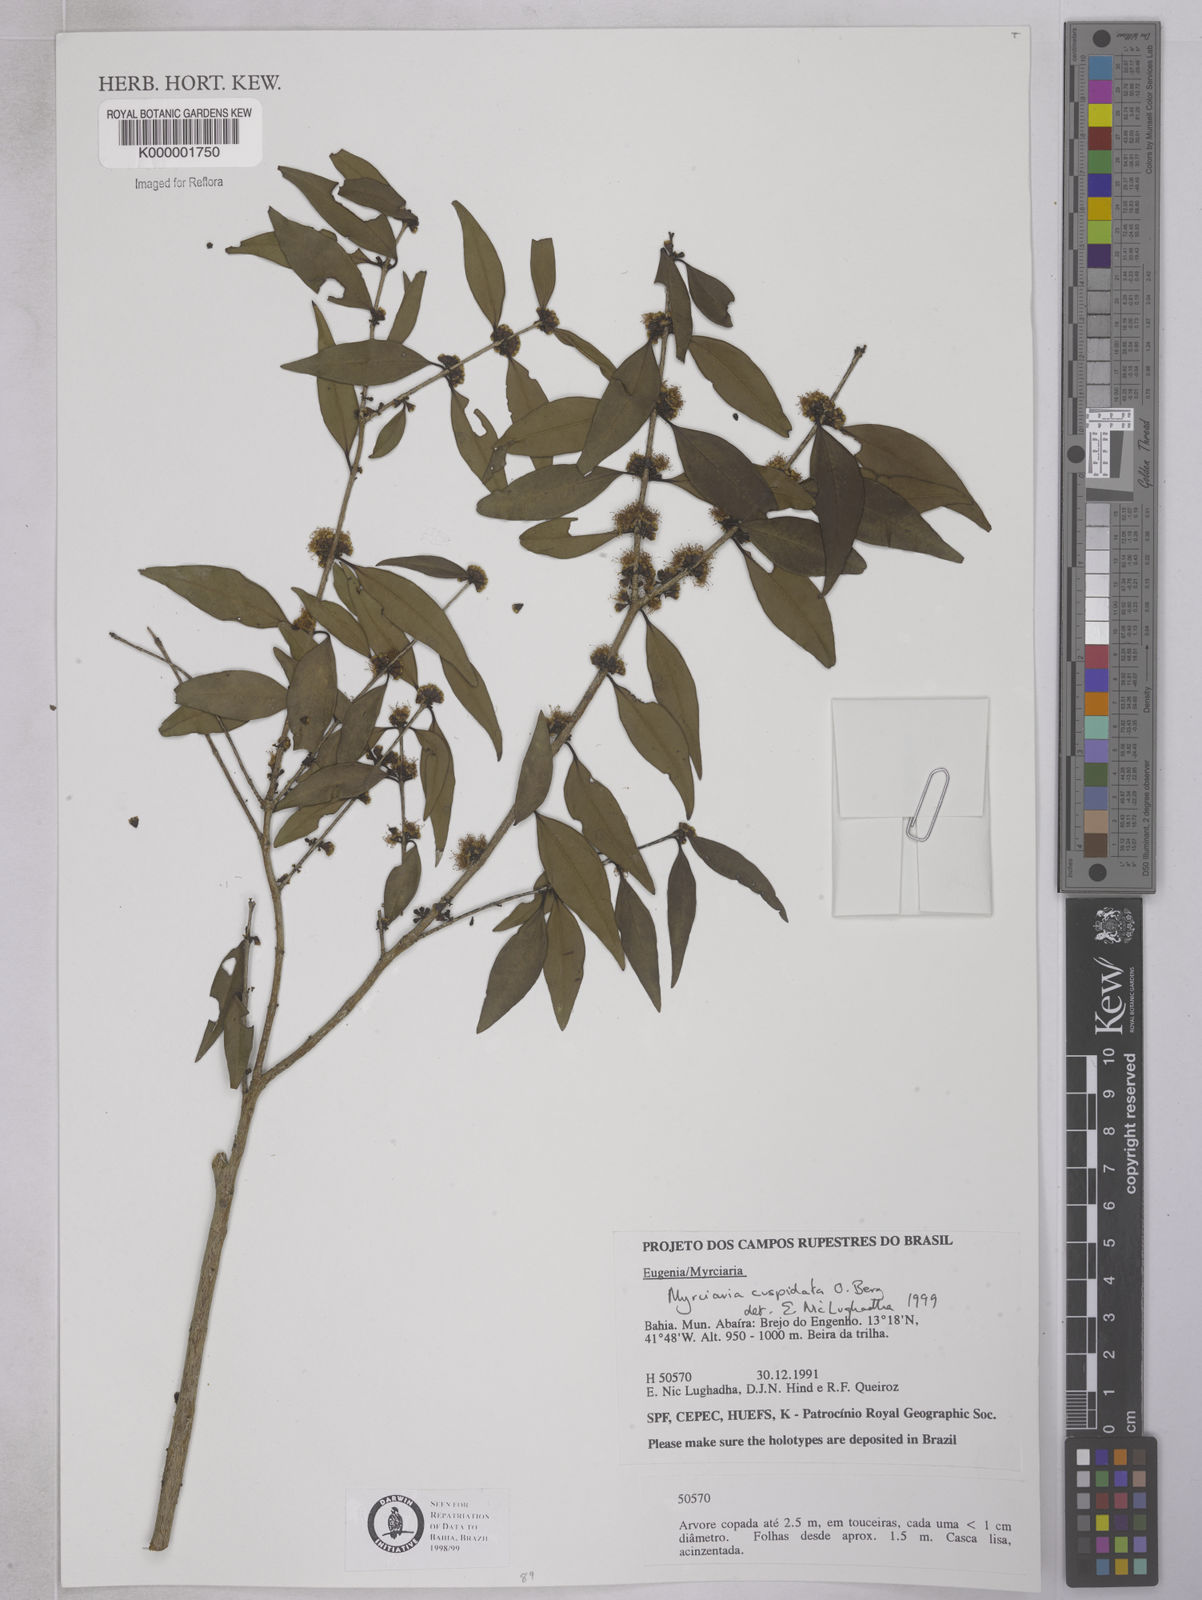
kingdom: Plantae
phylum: Tracheophyta
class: Magnoliopsida
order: Myrtales
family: Myrtaceae
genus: Myrciaria
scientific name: Myrciaria cuspidata
